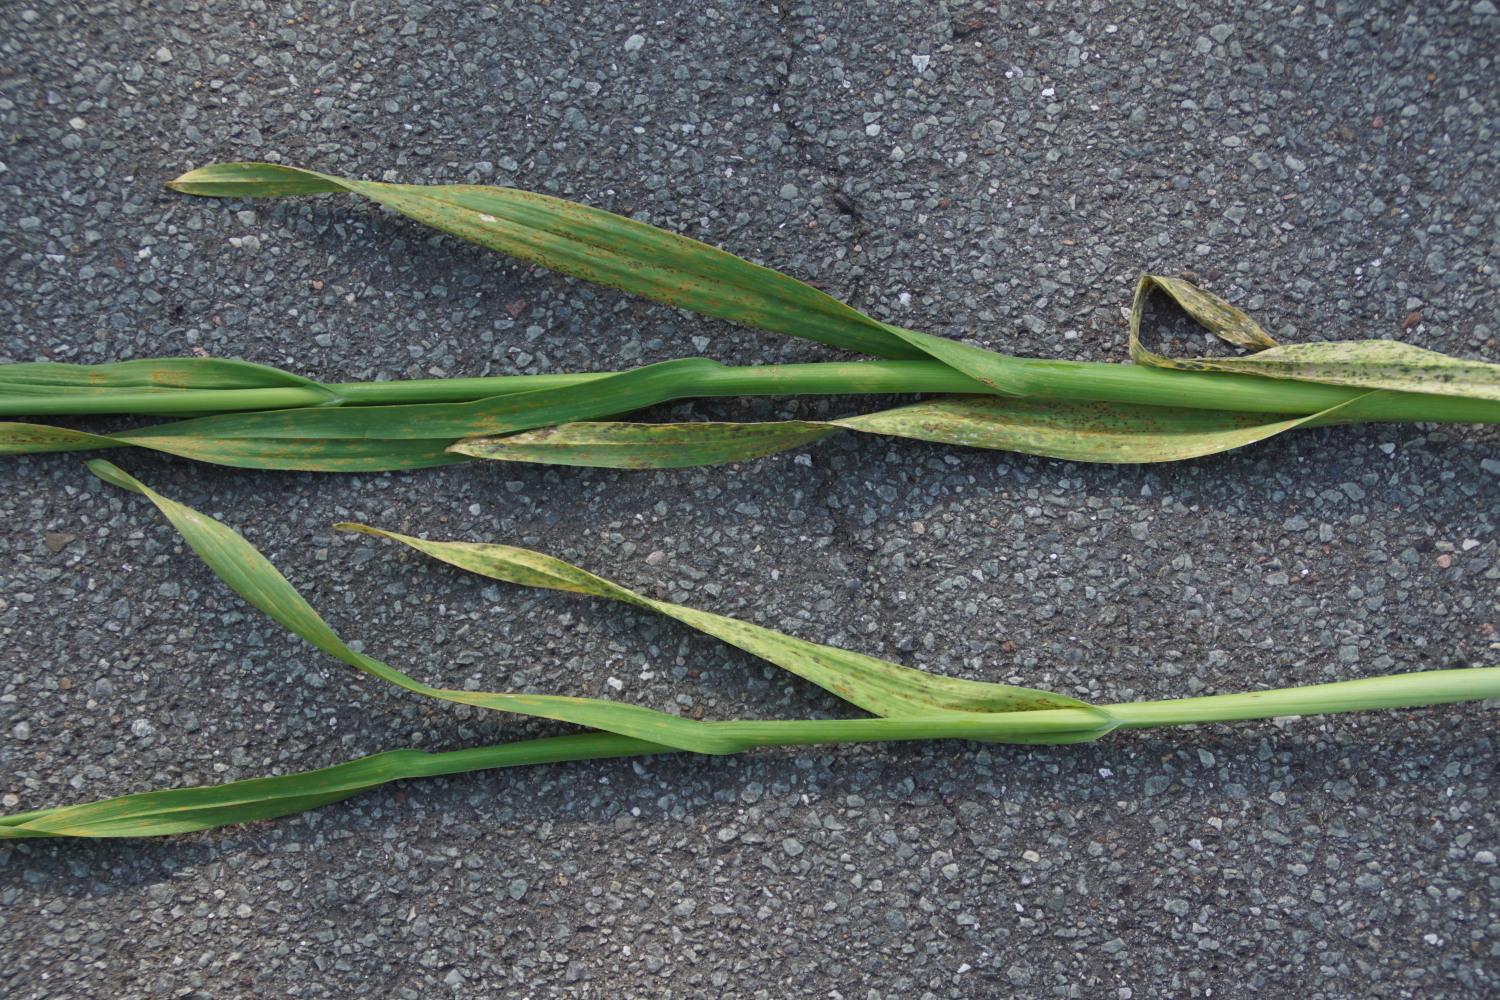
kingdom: Fungi
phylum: Basidiomycota
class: Pucciniomycetes
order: Pucciniales
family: Pucciniaceae
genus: Puccinia
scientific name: Puccinia porri
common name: Allium rust
